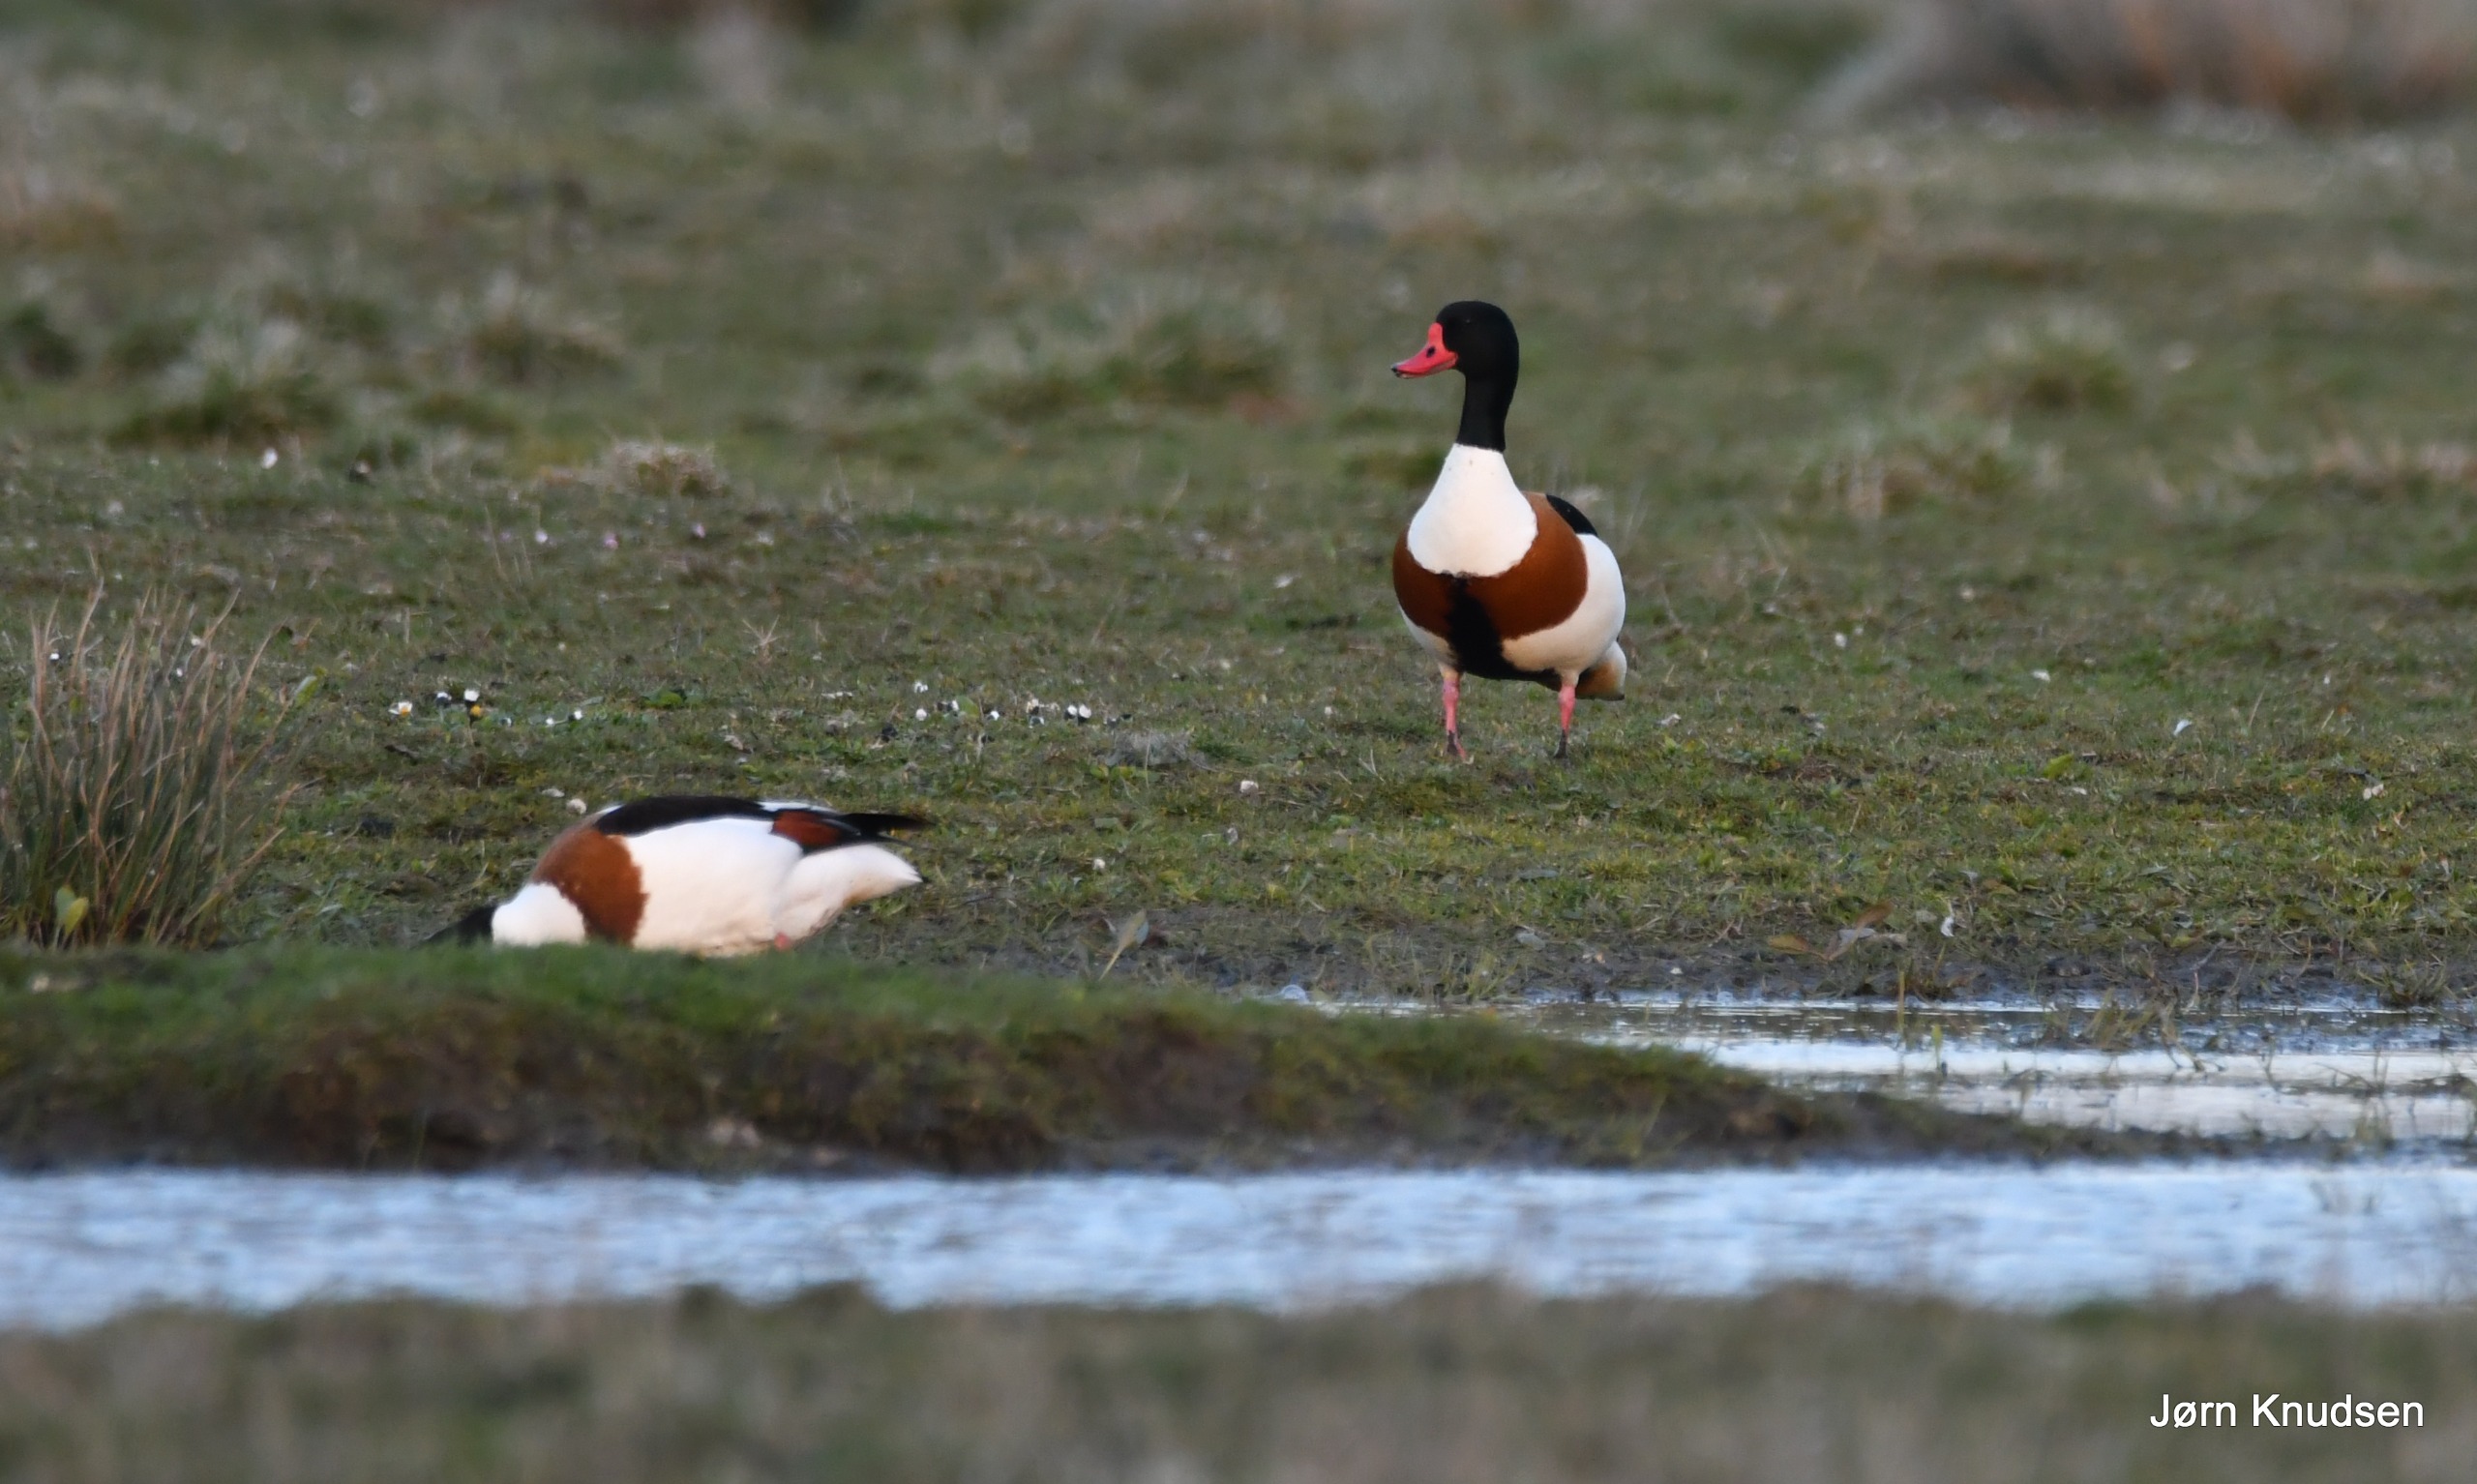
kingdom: Animalia
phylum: Chordata
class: Aves
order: Anseriformes
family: Anatidae
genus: Tadorna
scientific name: Tadorna tadorna
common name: Gravand
